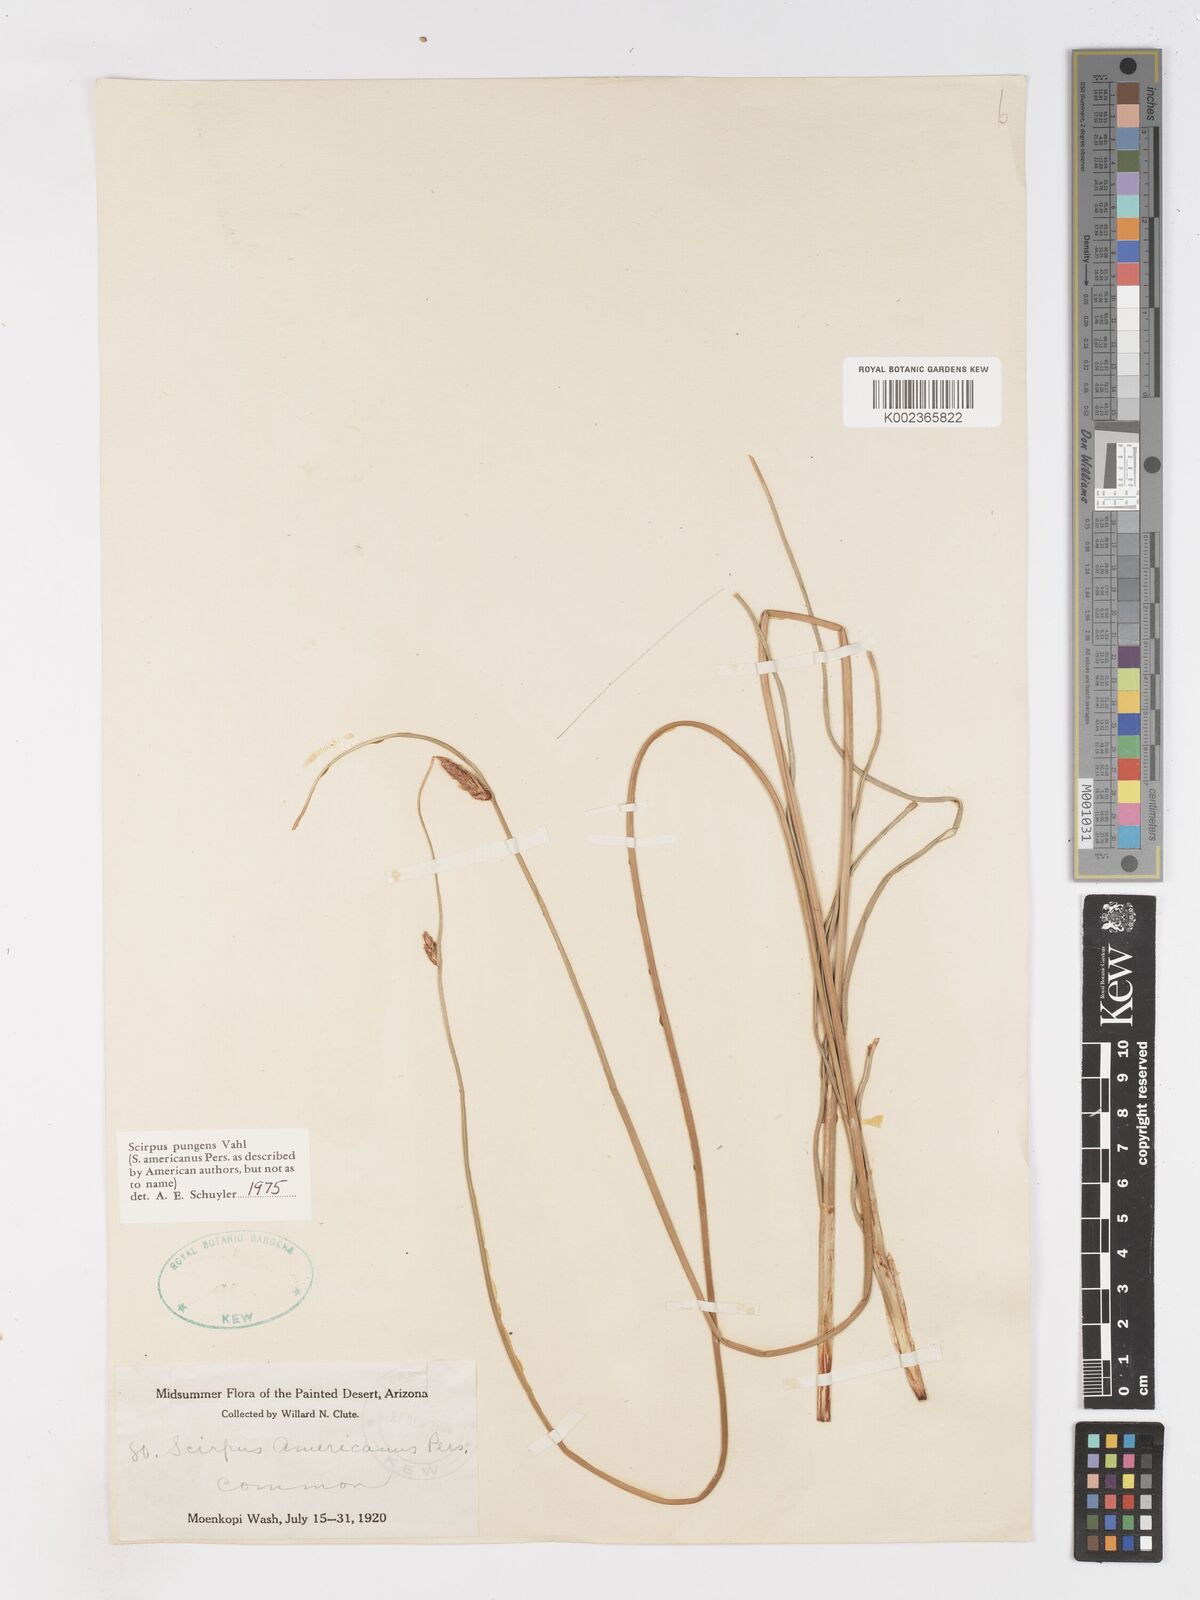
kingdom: Plantae
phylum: Tracheophyta
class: Liliopsida
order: Poales
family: Cyperaceae
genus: Schoenoplectus
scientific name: Schoenoplectus pungens
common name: Sharp club-rush
